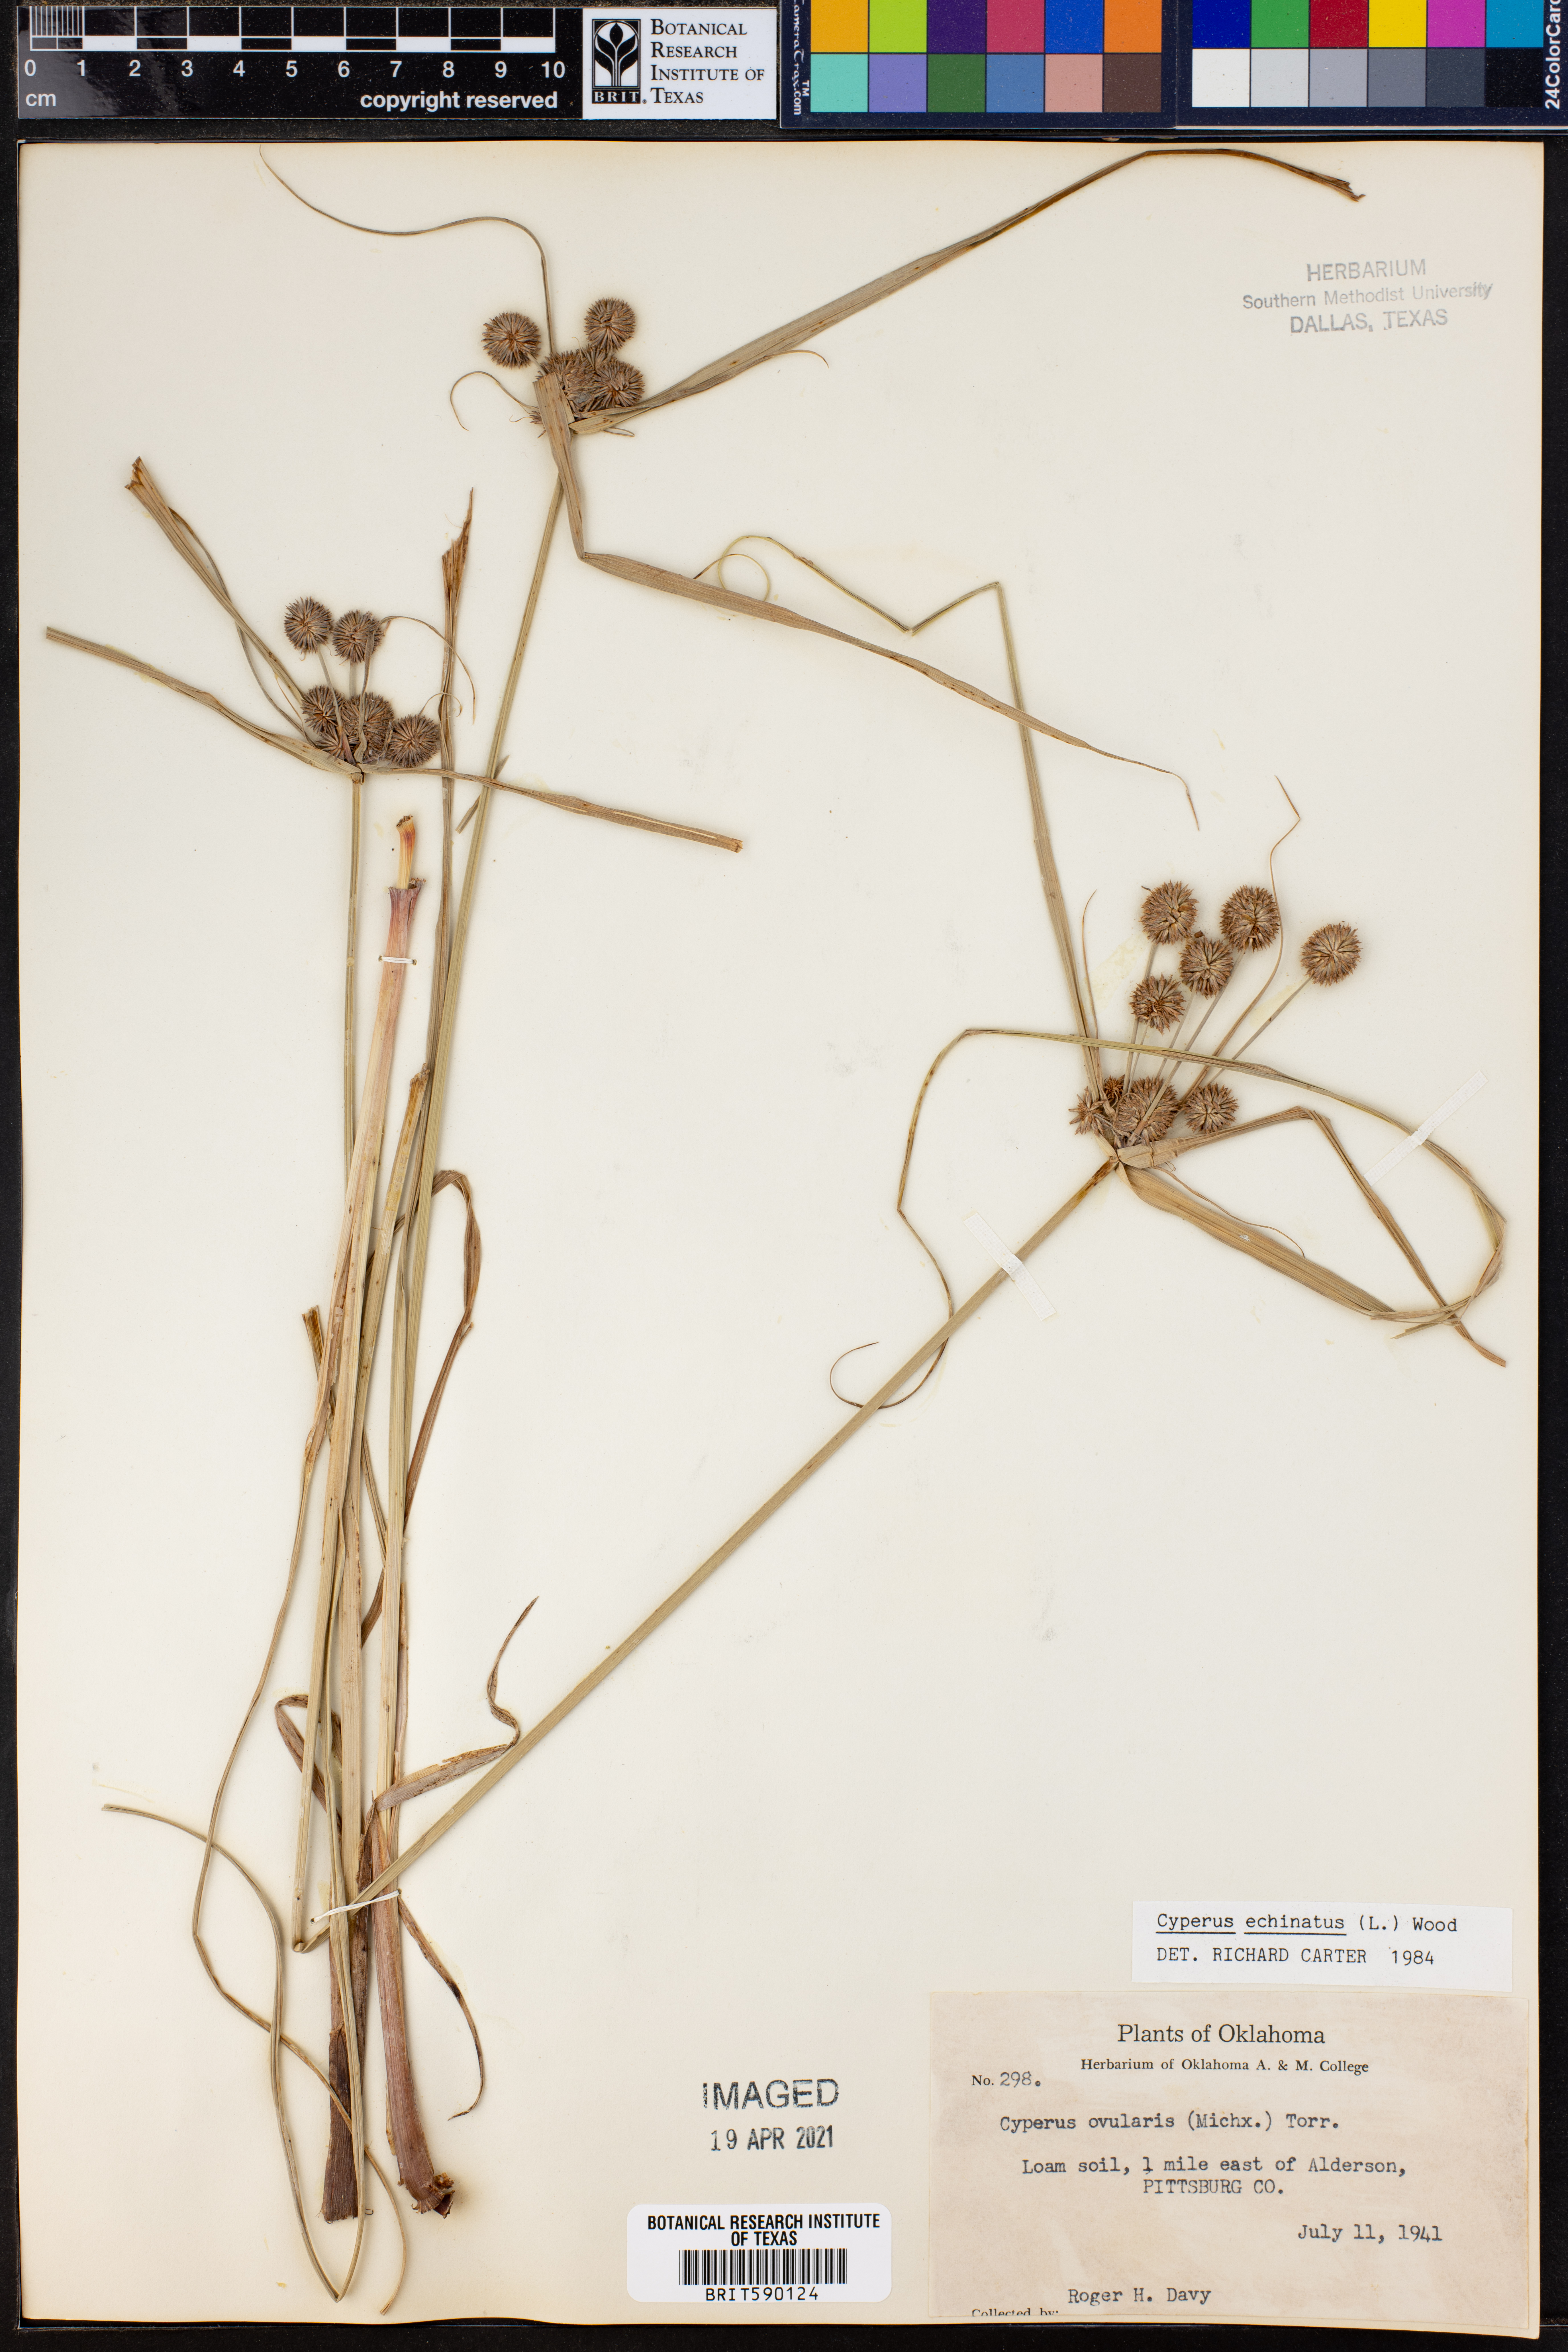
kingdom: Plantae
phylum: Tracheophyta
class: Liliopsida
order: Poales
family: Cyperaceae
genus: Cyperus
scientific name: Cyperus echinatus
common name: Teasel sedge
